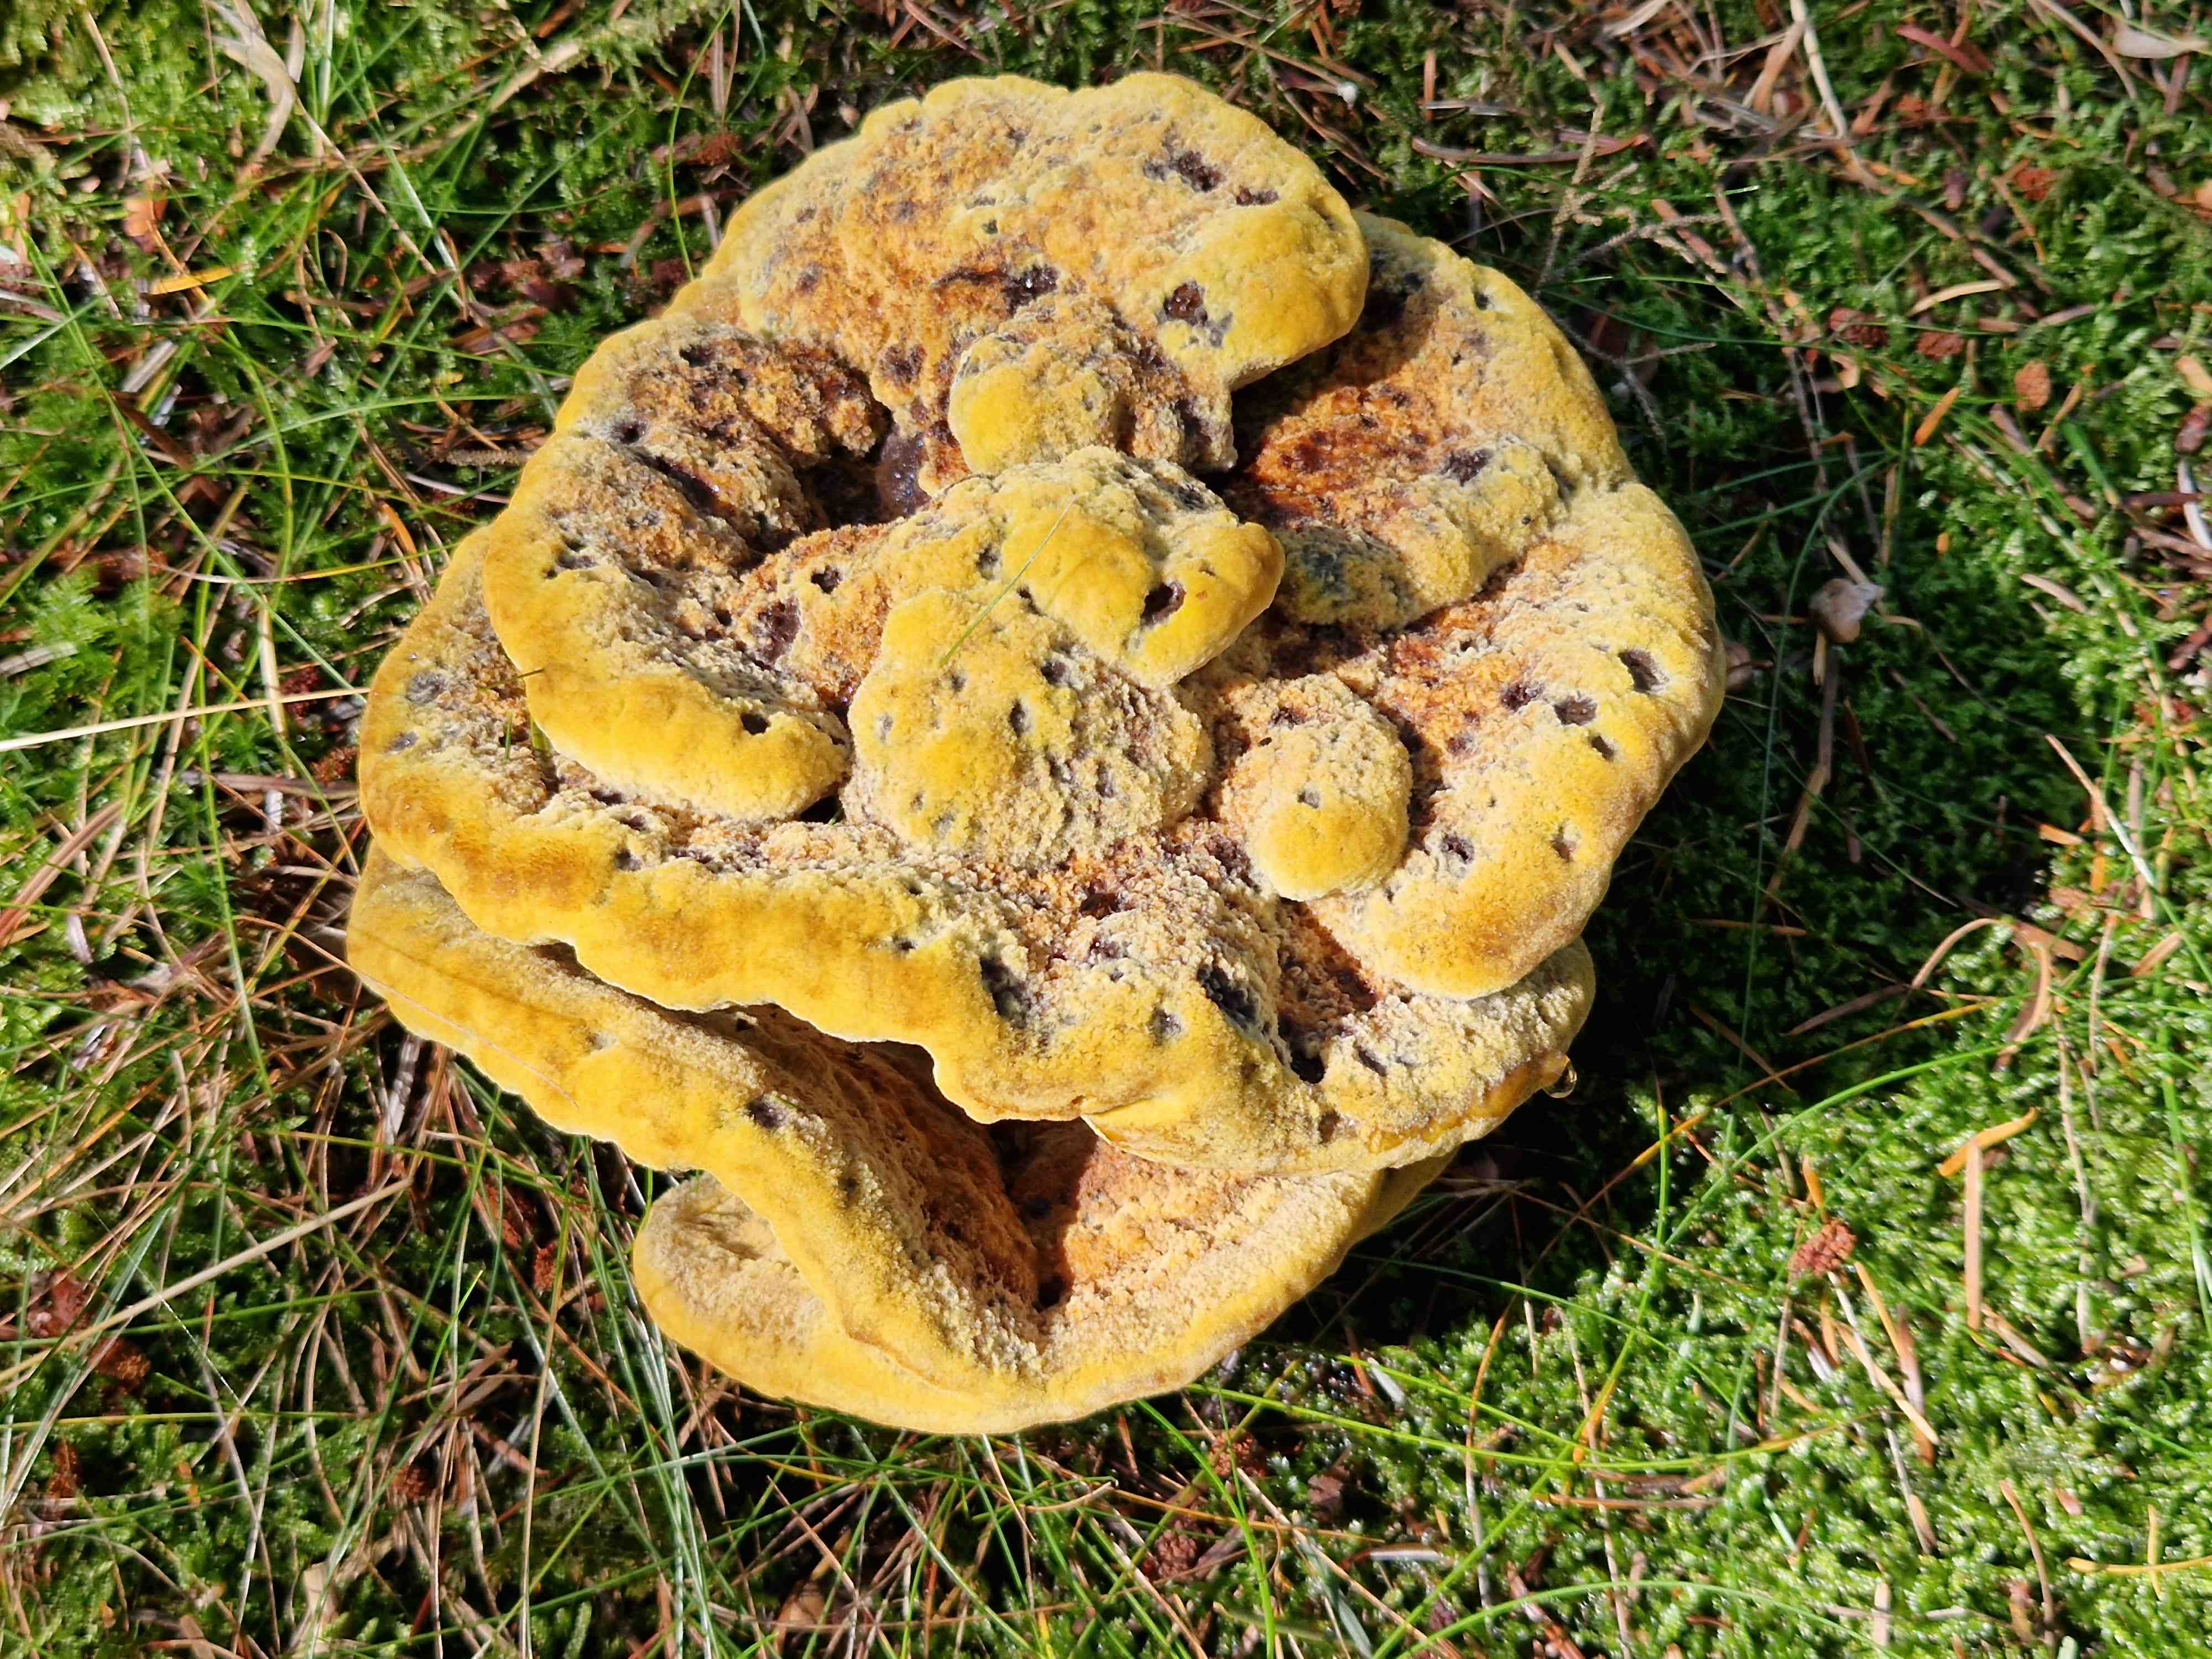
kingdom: Fungi
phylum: Basidiomycota
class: Agaricomycetes
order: Polyporales
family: Laetiporaceae
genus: Phaeolus
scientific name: Phaeolus schweinitzii
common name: brunporesvamp
